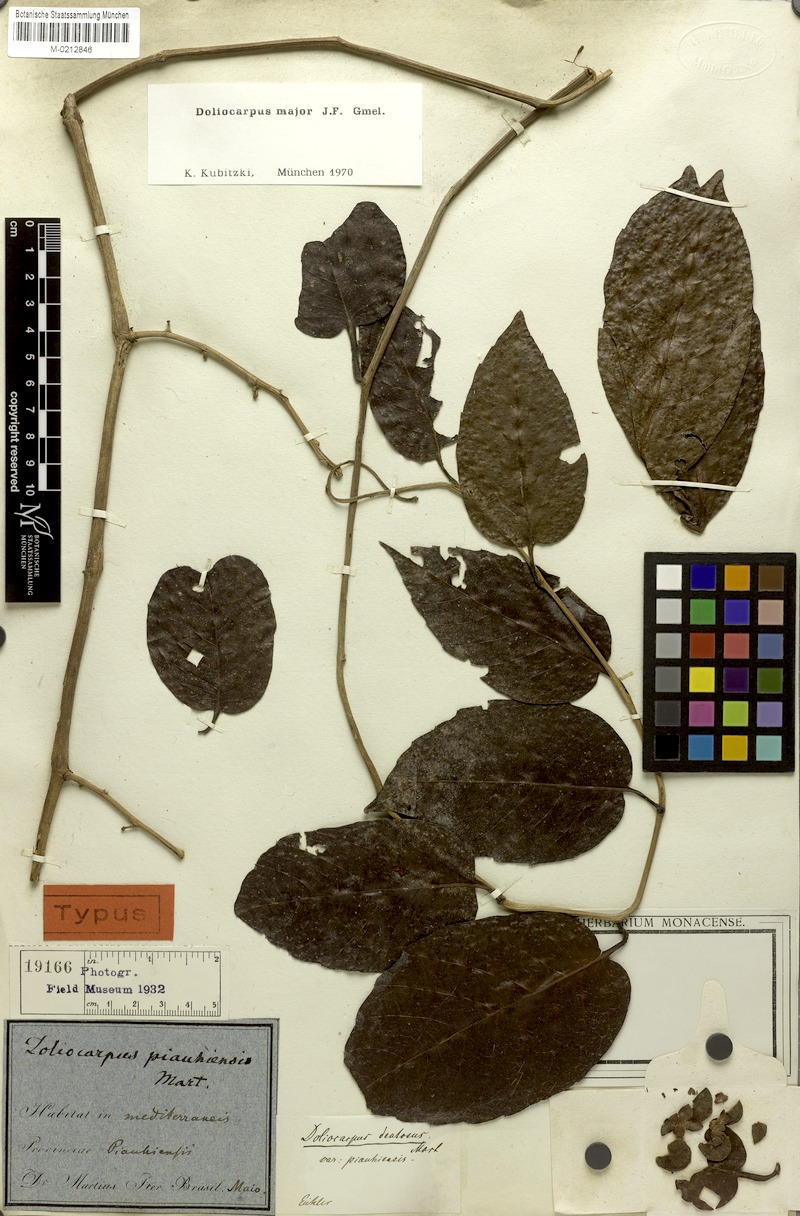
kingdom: Plantae
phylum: Tracheophyta
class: Magnoliopsida
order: Dilleniales
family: Dilleniaceae
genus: Doliocarpus
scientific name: Doliocarpus major
